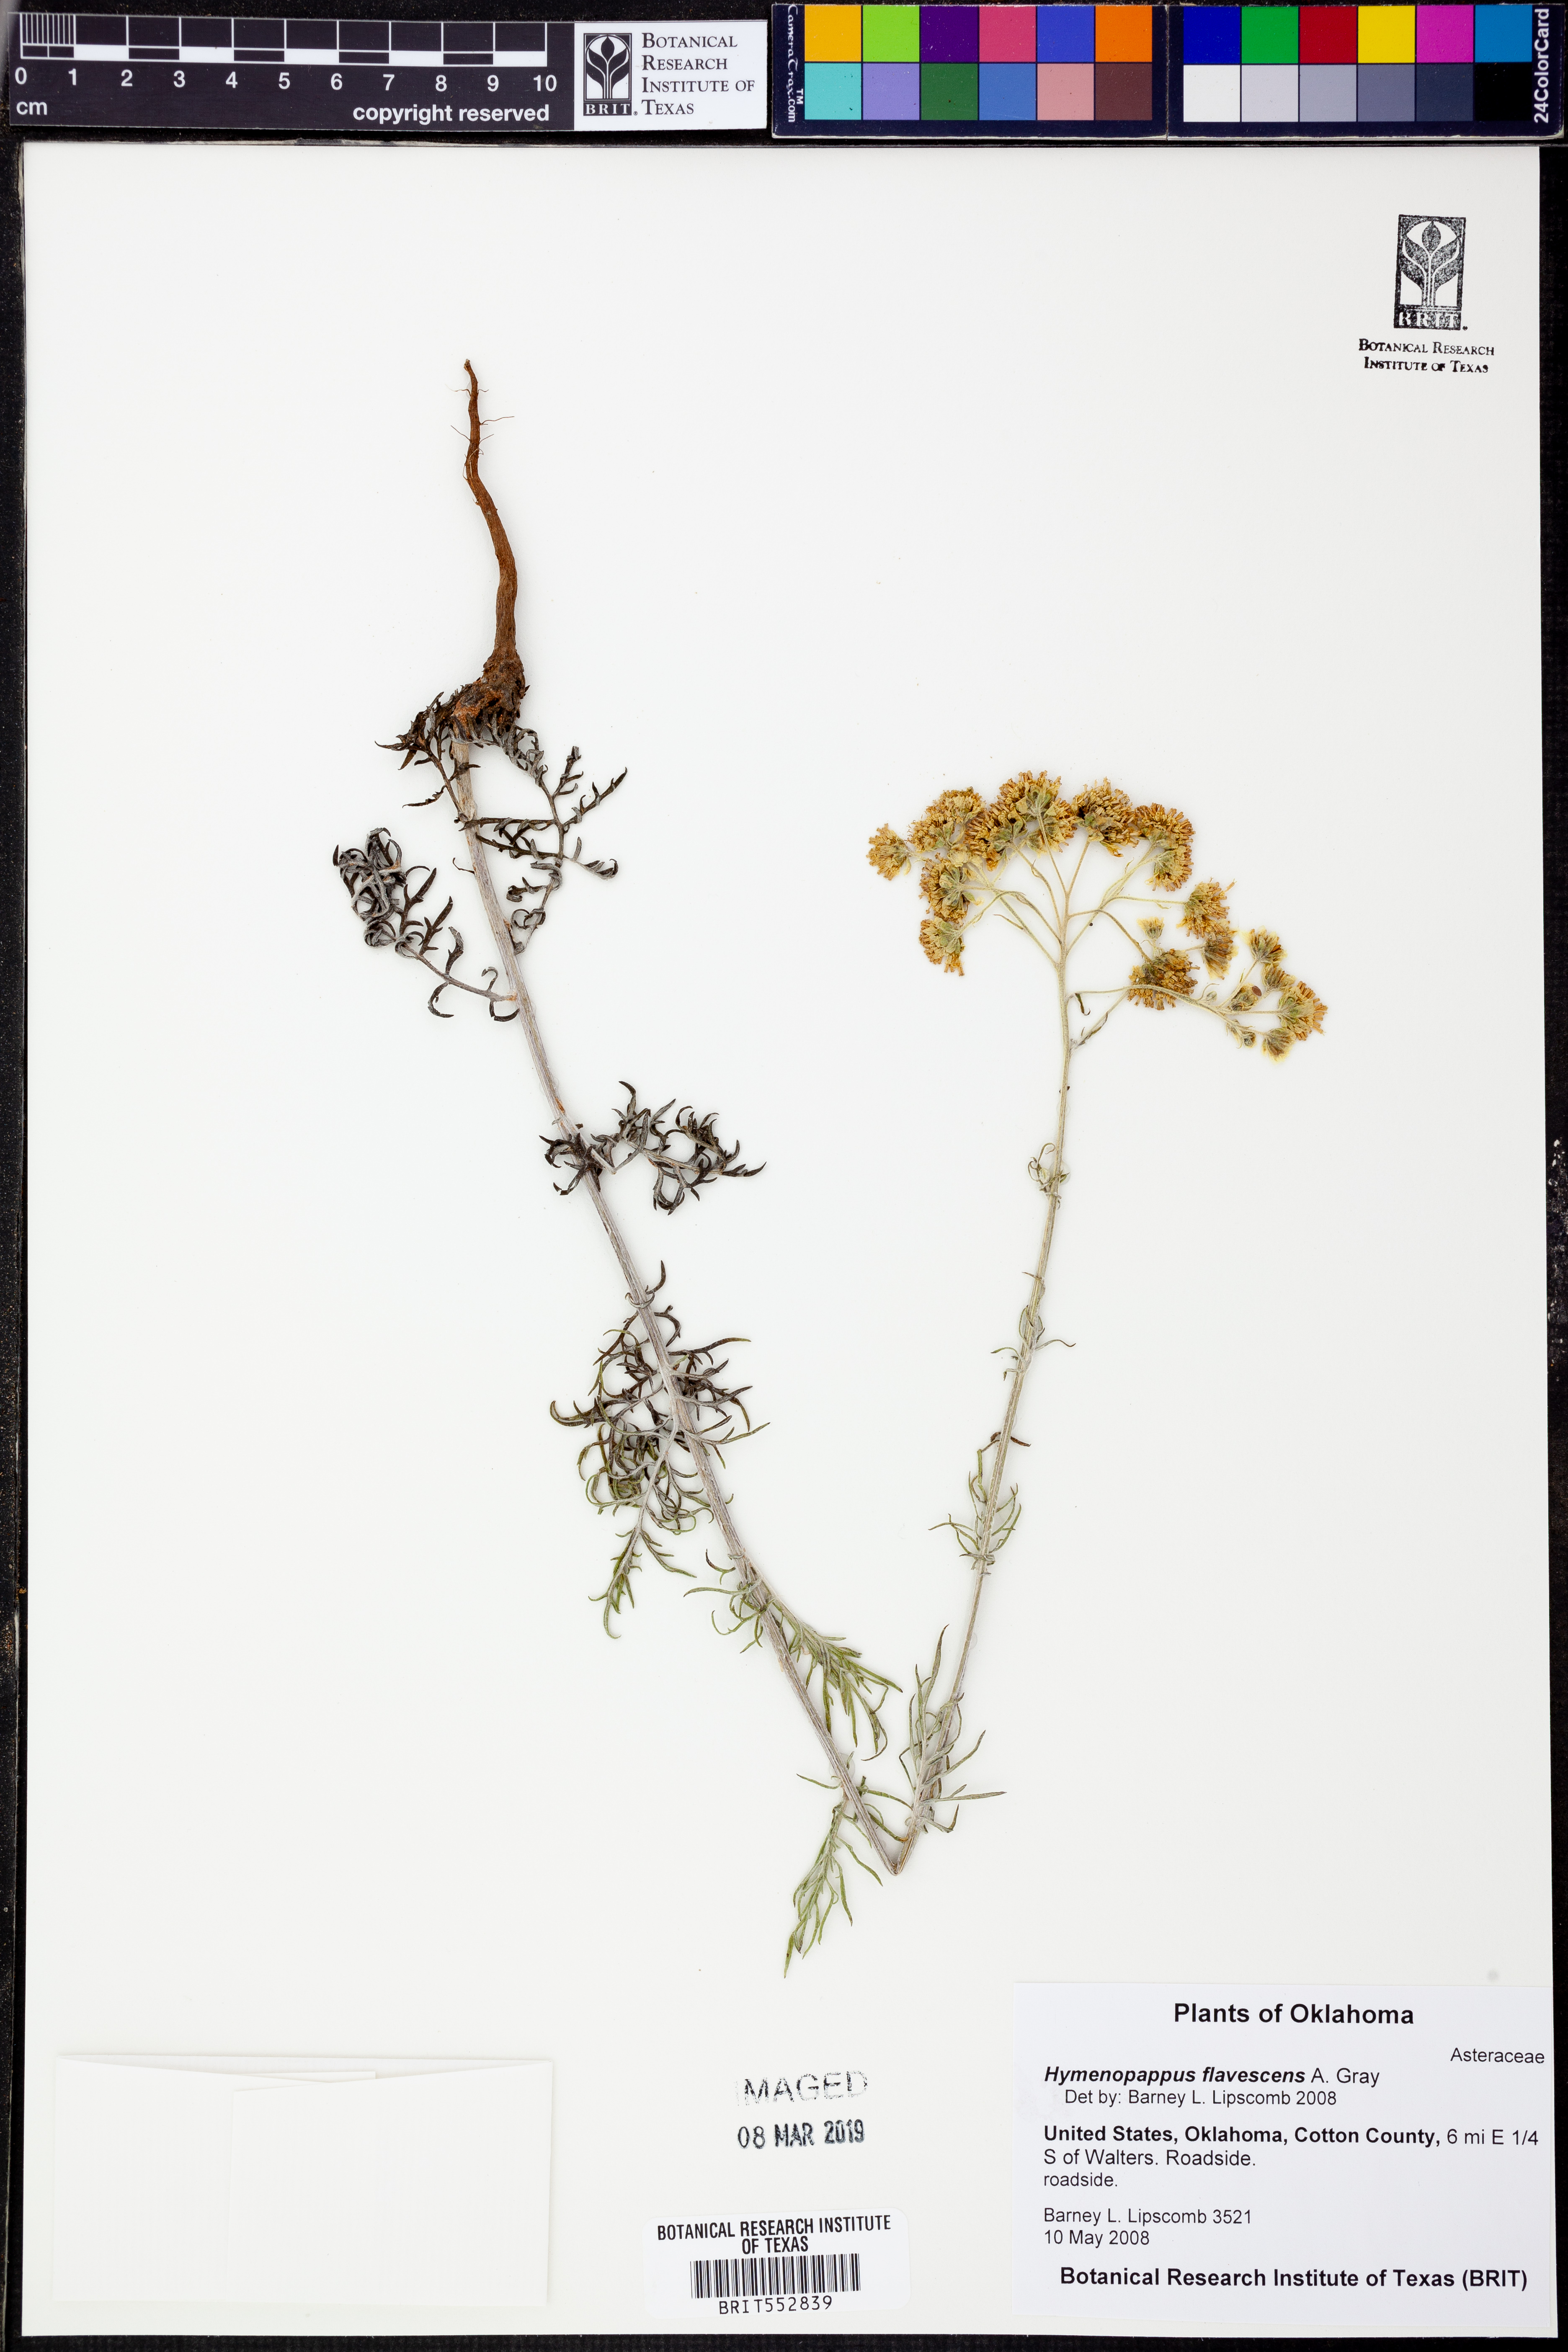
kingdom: Plantae
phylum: Tracheophyta
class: Magnoliopsida
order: Asterales
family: Asteraceae
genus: Hymenopappus
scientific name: Hymenopappus flavescens
